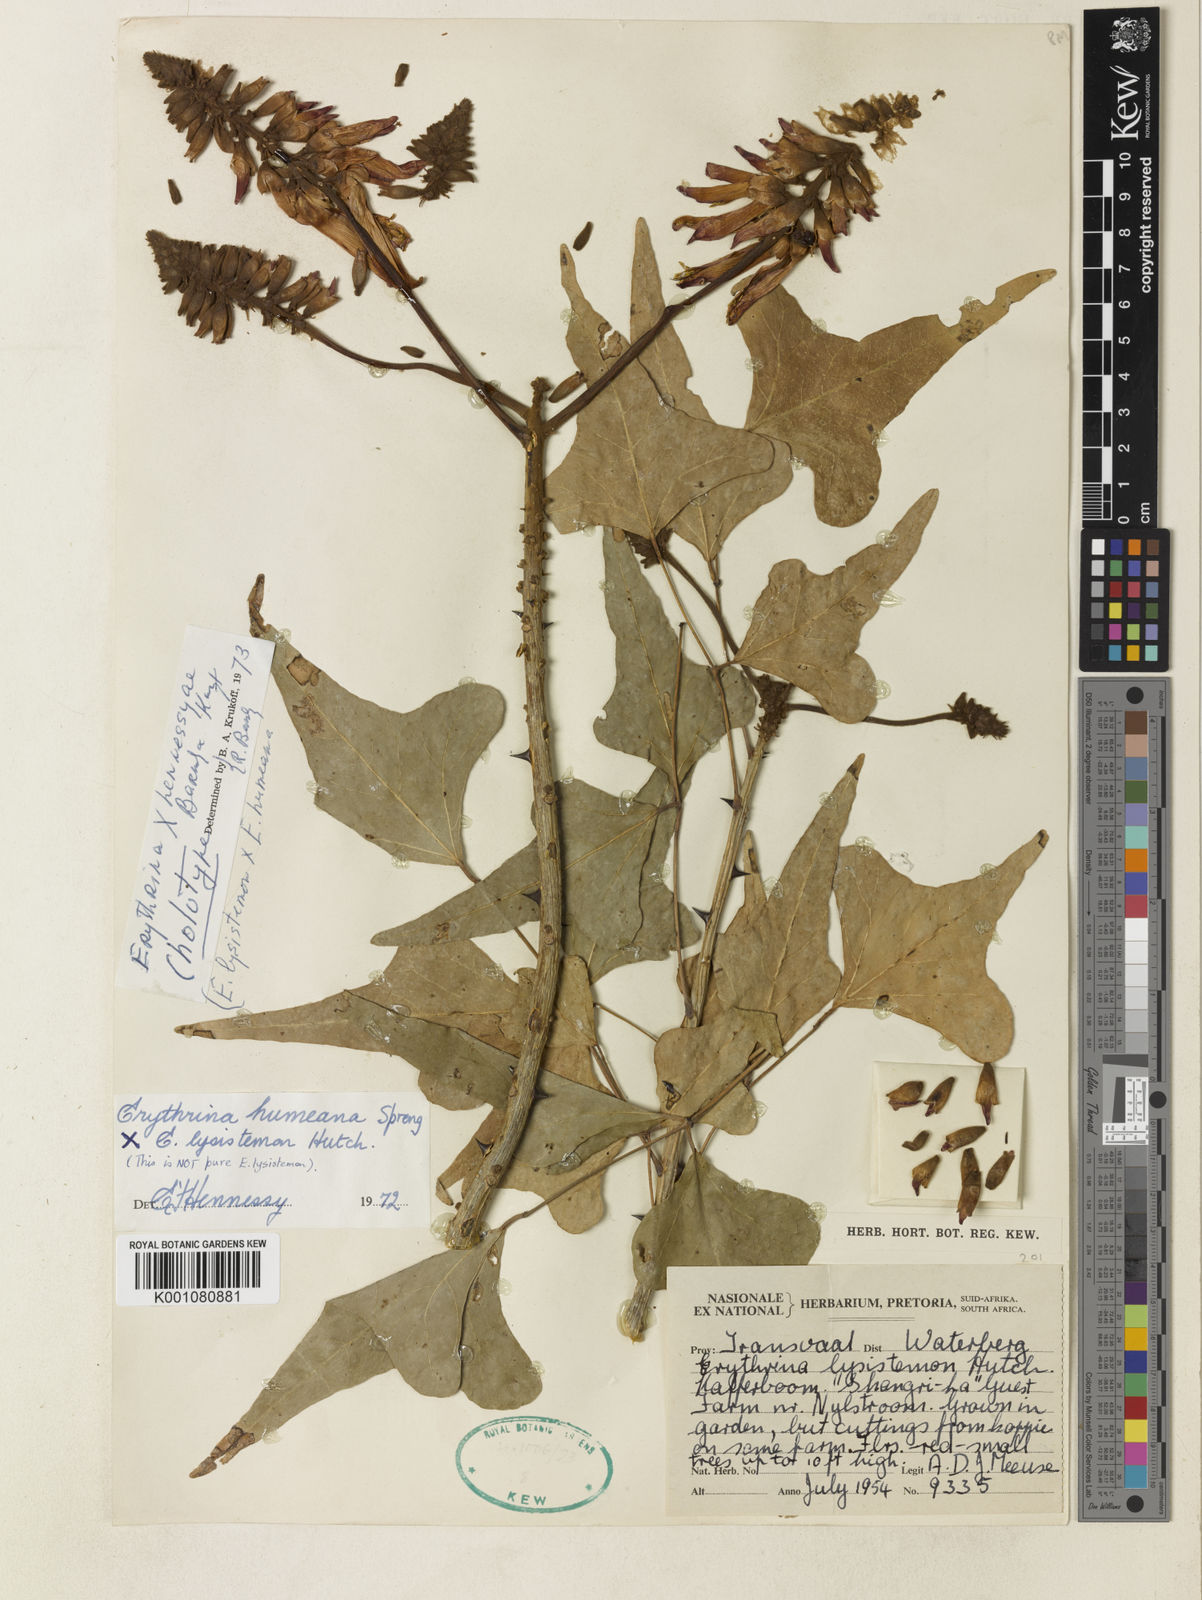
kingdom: Plantae
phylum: Tracheophyta
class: Magnoliopsida
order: Fabales
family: Fabaceae
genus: Erythrina
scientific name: Erythrina hennessyae
